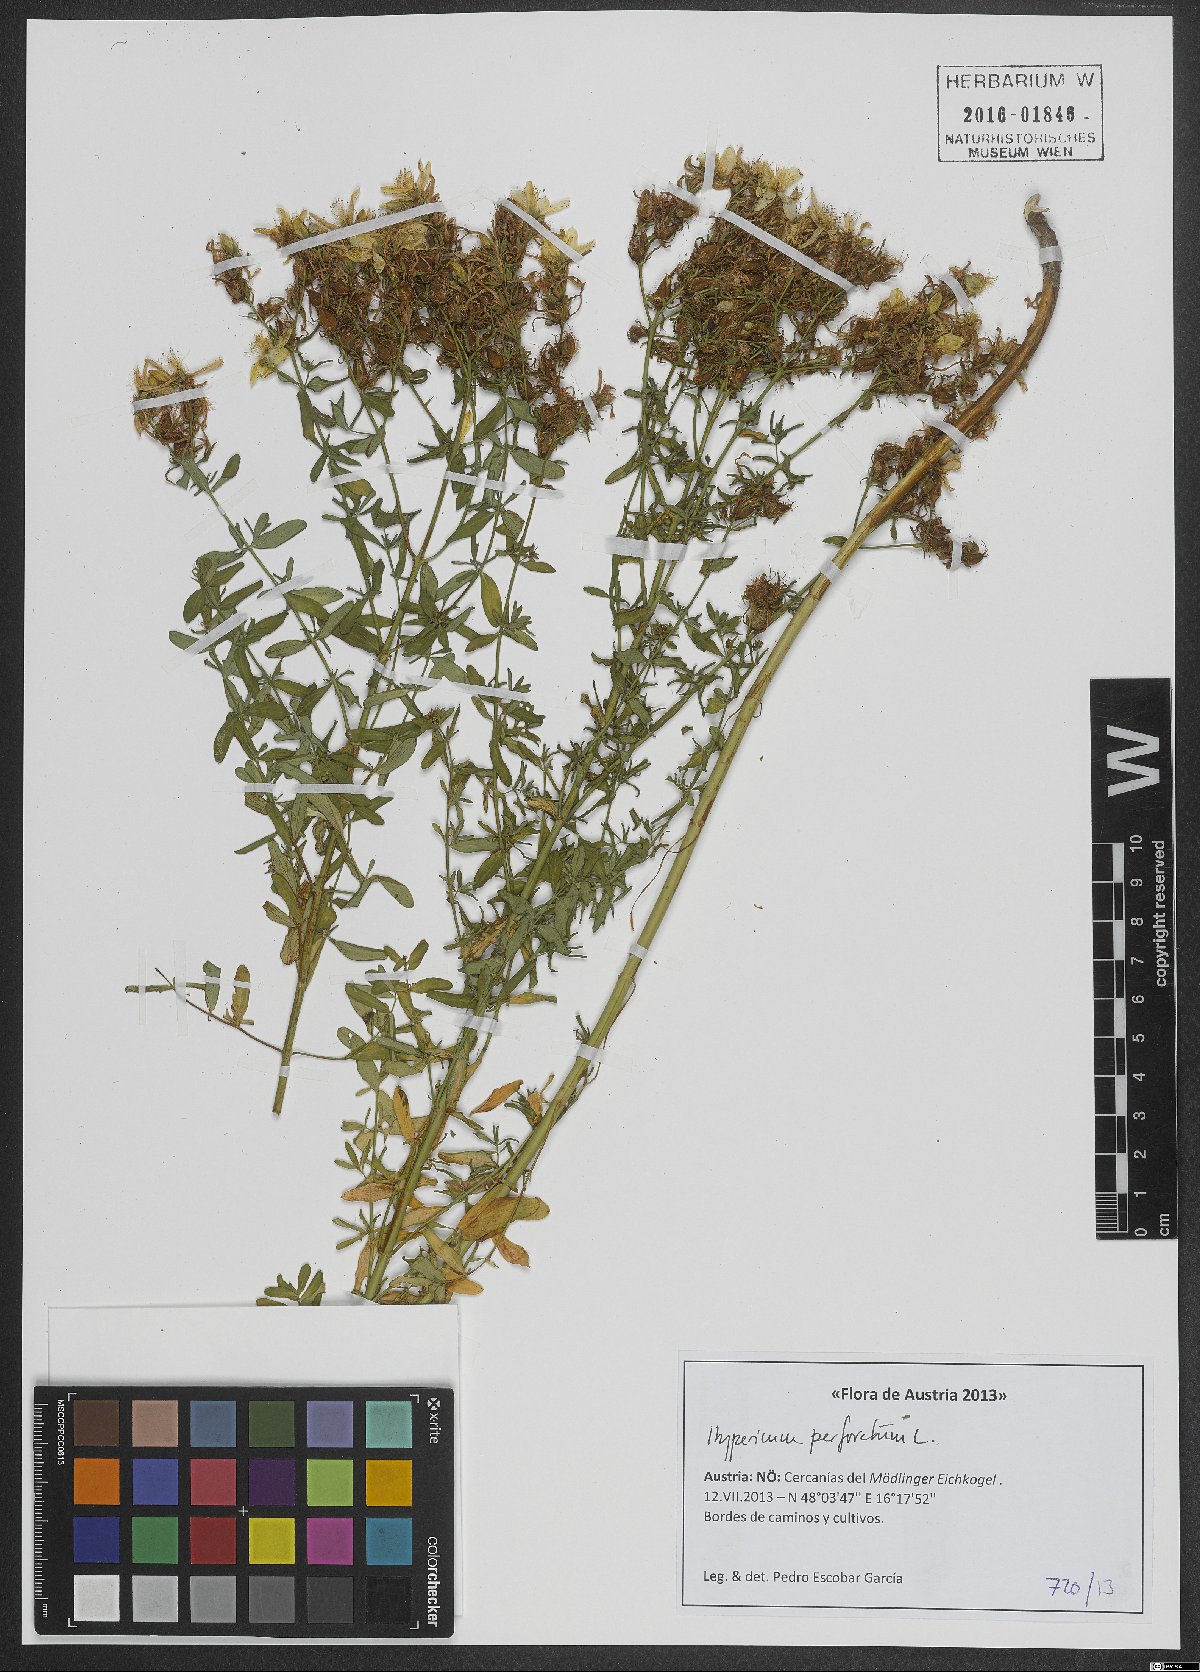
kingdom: Plantae
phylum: Tracheophyta
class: Magnoliopsida
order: Malpighiales
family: Hypericaceae
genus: Hypericum
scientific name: Hypericum perforatum
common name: Common st. johnswort
